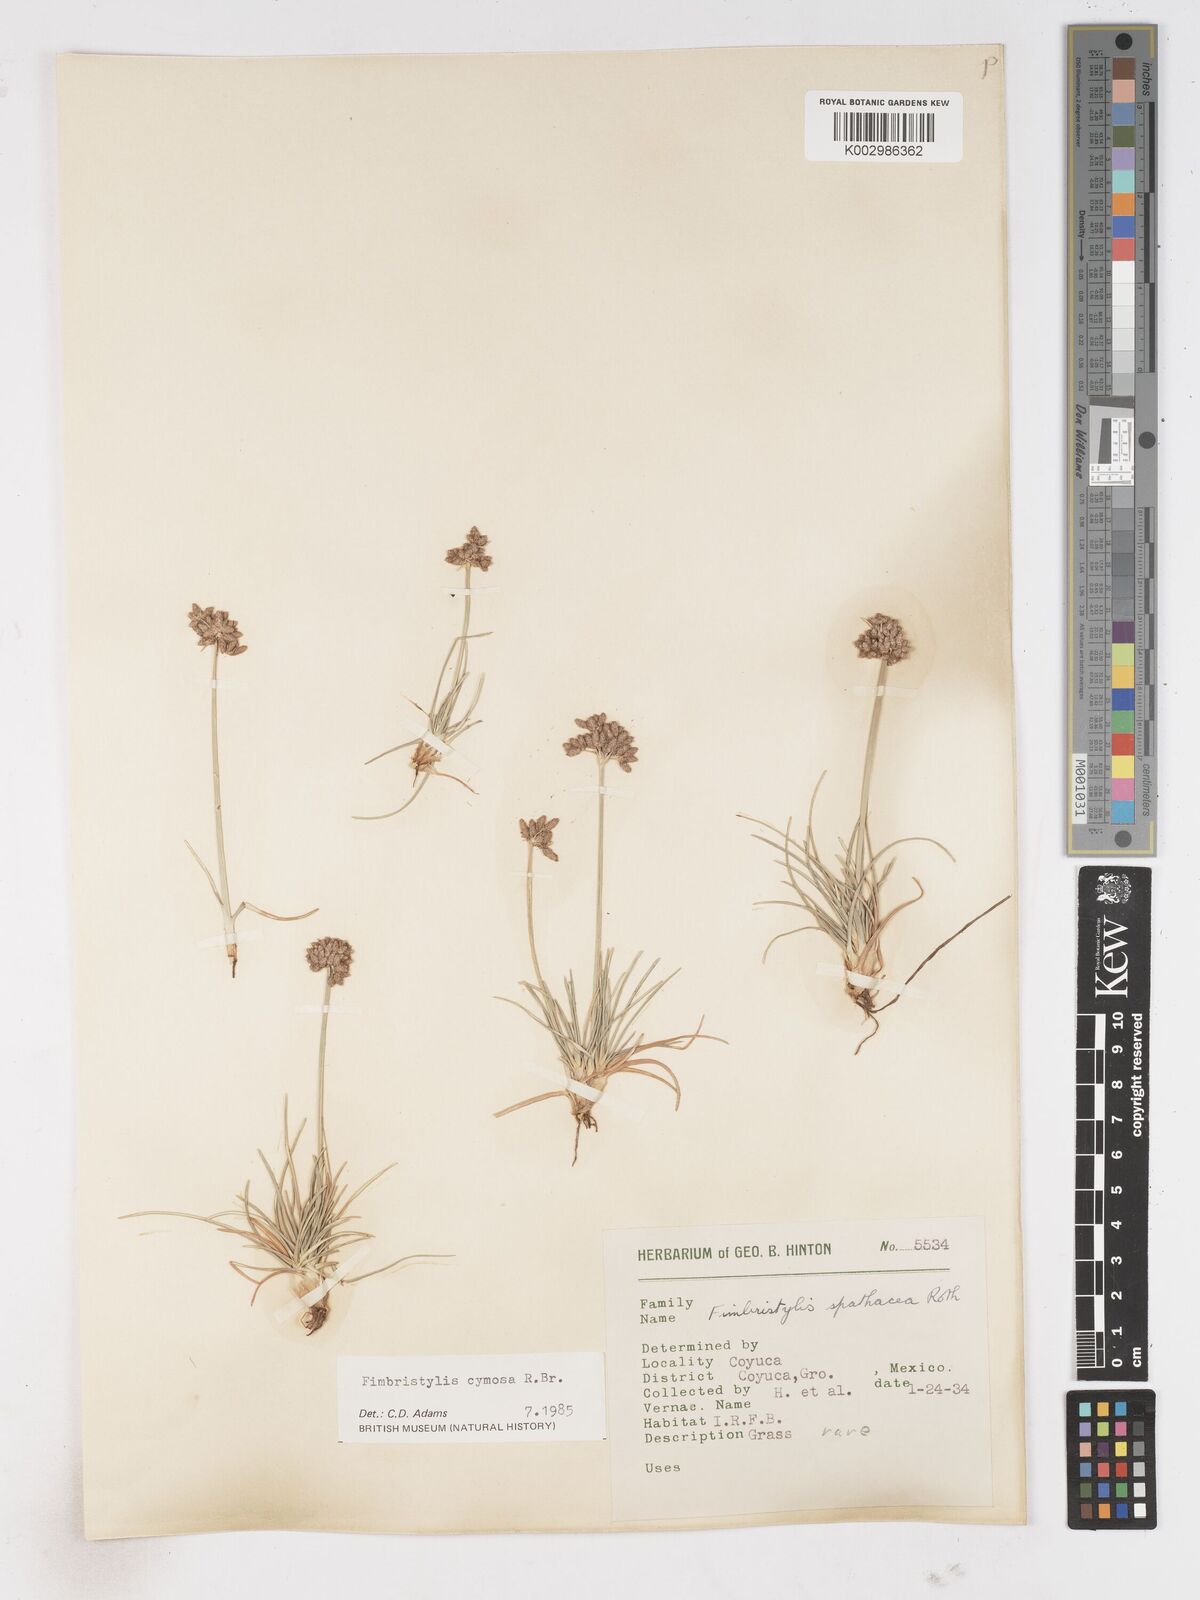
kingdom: Plantae
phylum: Tracheophyta
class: Liliopsida
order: Poales
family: Cyperaceae
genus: Fimbristylis
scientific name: Fimbristylis cymosa
